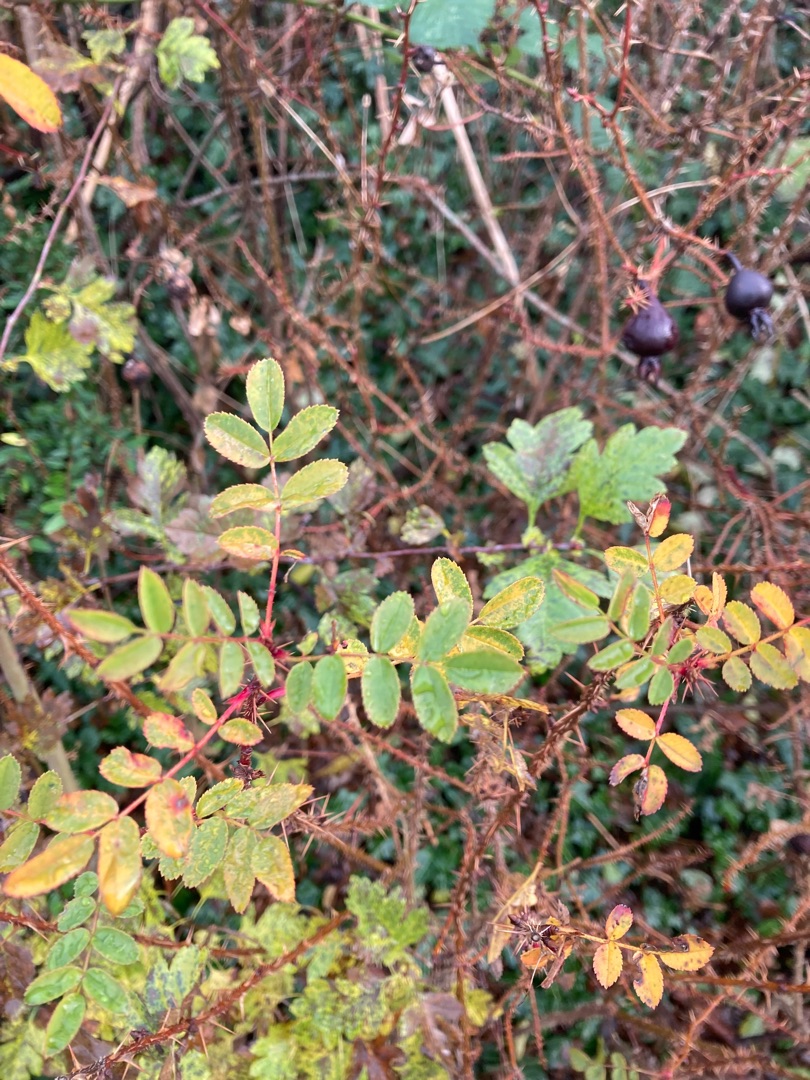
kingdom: Plantae
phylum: Tracheophyta
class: Magnoliopsida
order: Rosales
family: Rosaceae
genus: Rosa
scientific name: Rosa spinosissima
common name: Klit-rose
